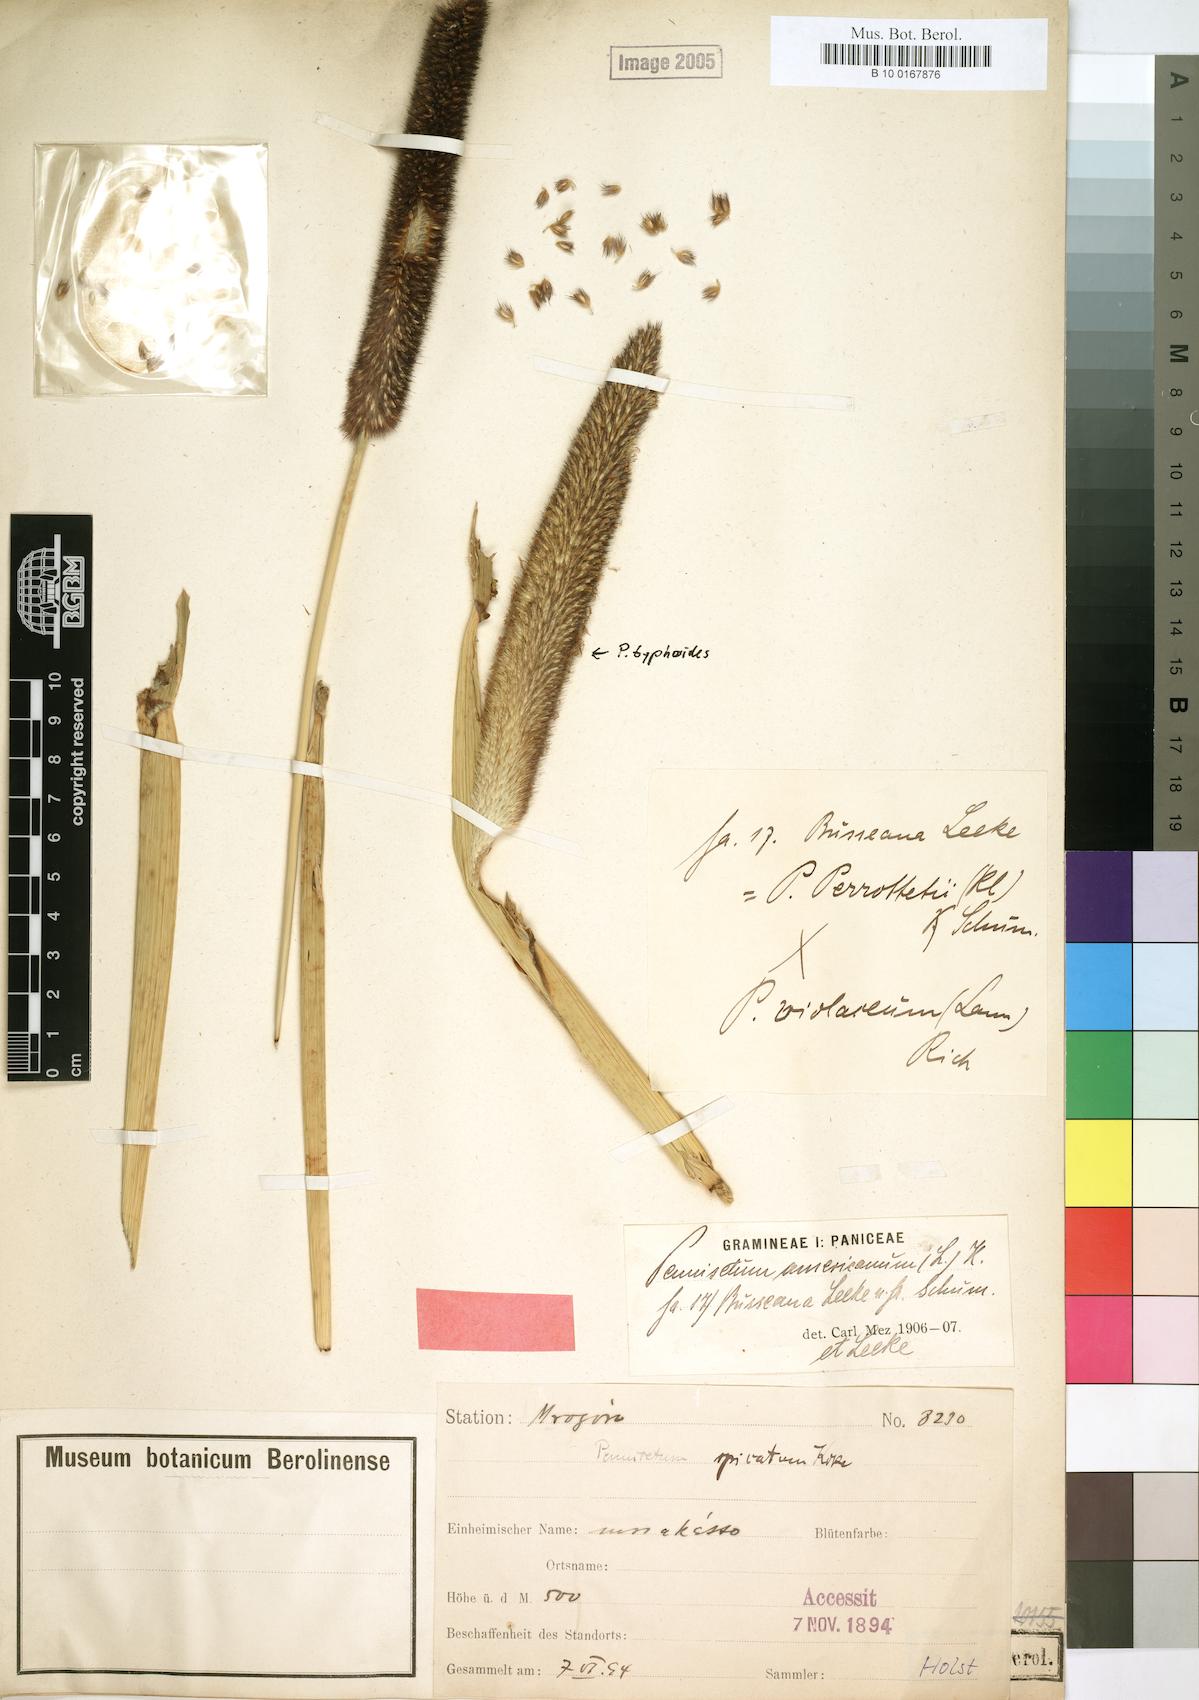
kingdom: Plantae
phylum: Tracheophyta
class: Liliopsida
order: Poales
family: Poaceae
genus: Cenchrus
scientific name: Cenchrus americanus
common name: Pearl millet
